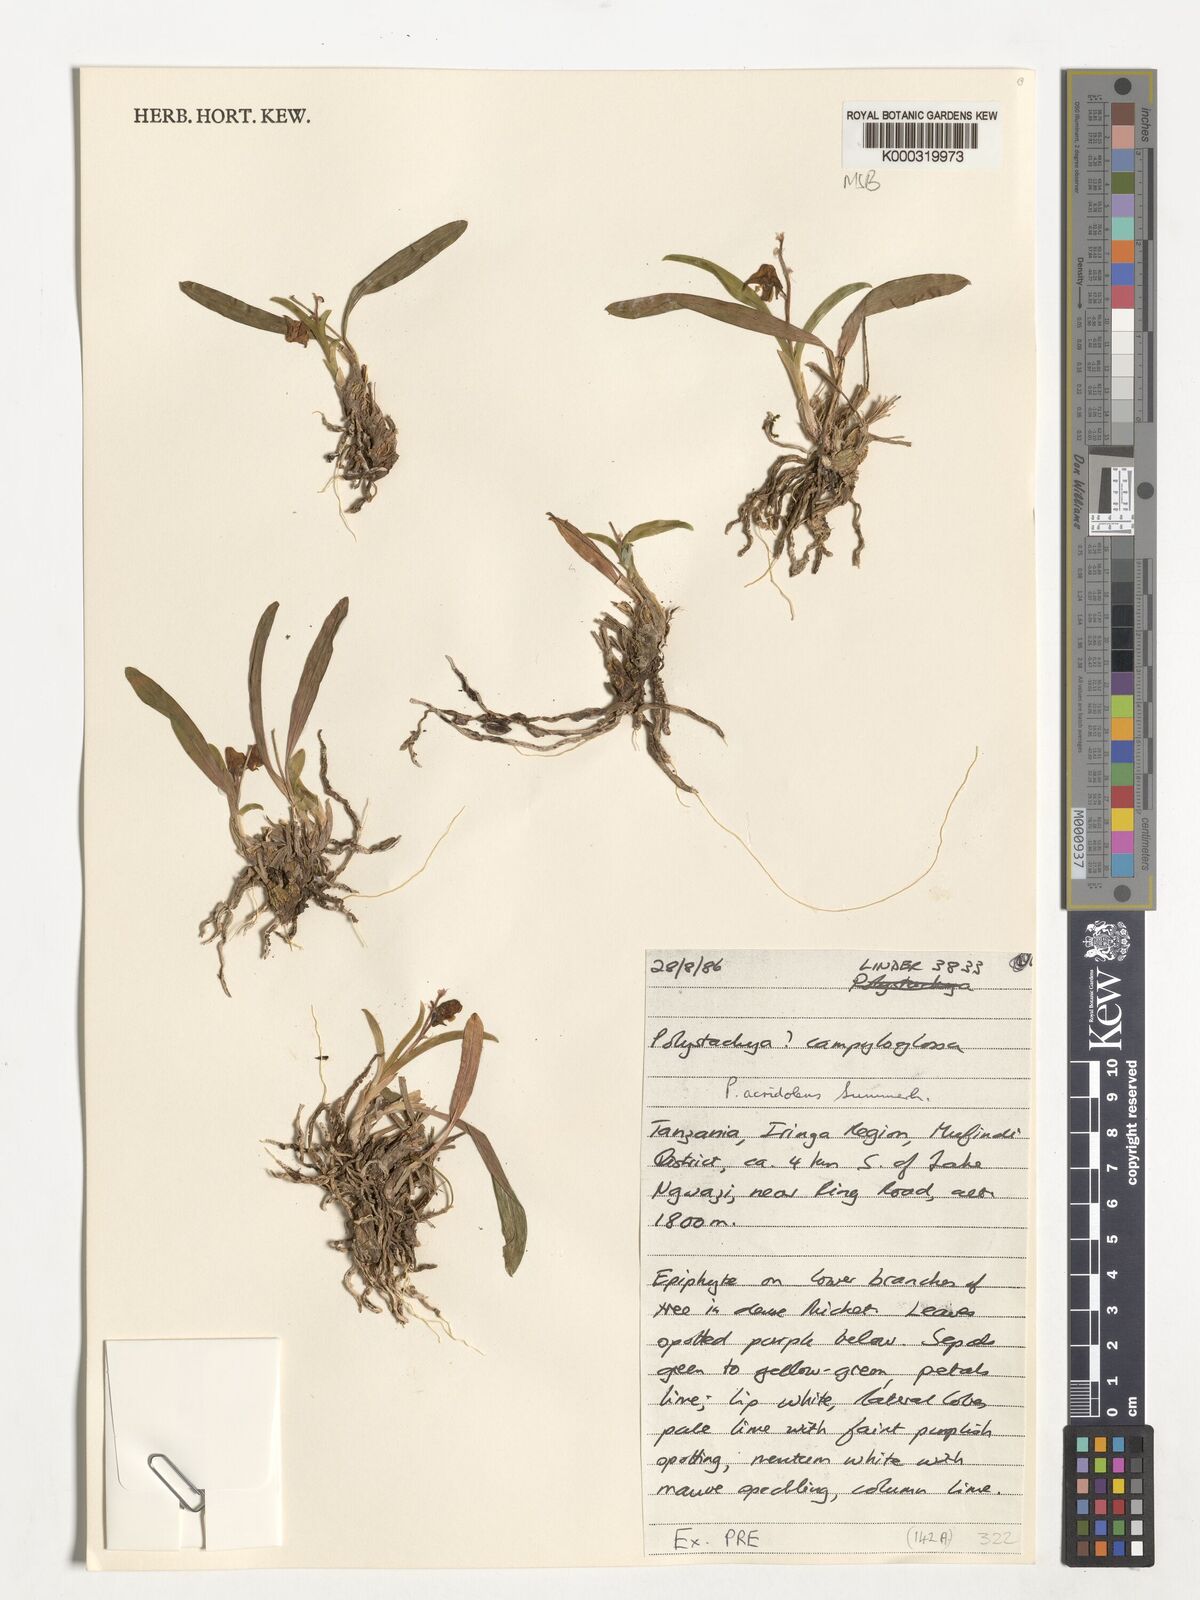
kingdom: Plantae
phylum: Tracheophyta
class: Liliopsida
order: Asparagales
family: Orchidaceae
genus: Polystachya
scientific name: Polystachya acridolens
